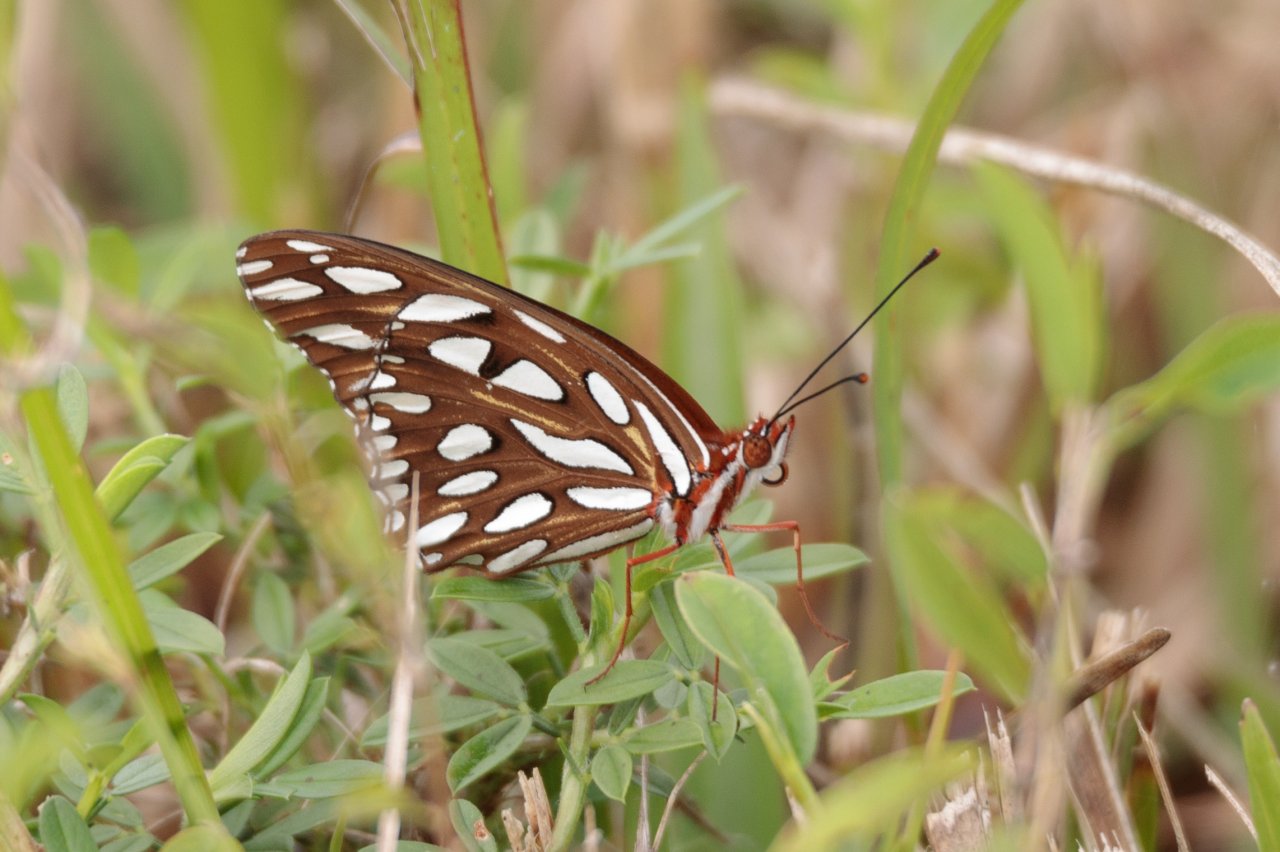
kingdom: Animalia
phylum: Arthropoda
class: Insecta
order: Lepidoptera
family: Nymphalidae
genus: Dione
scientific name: Dione vanillae
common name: Gulf Fritillary
